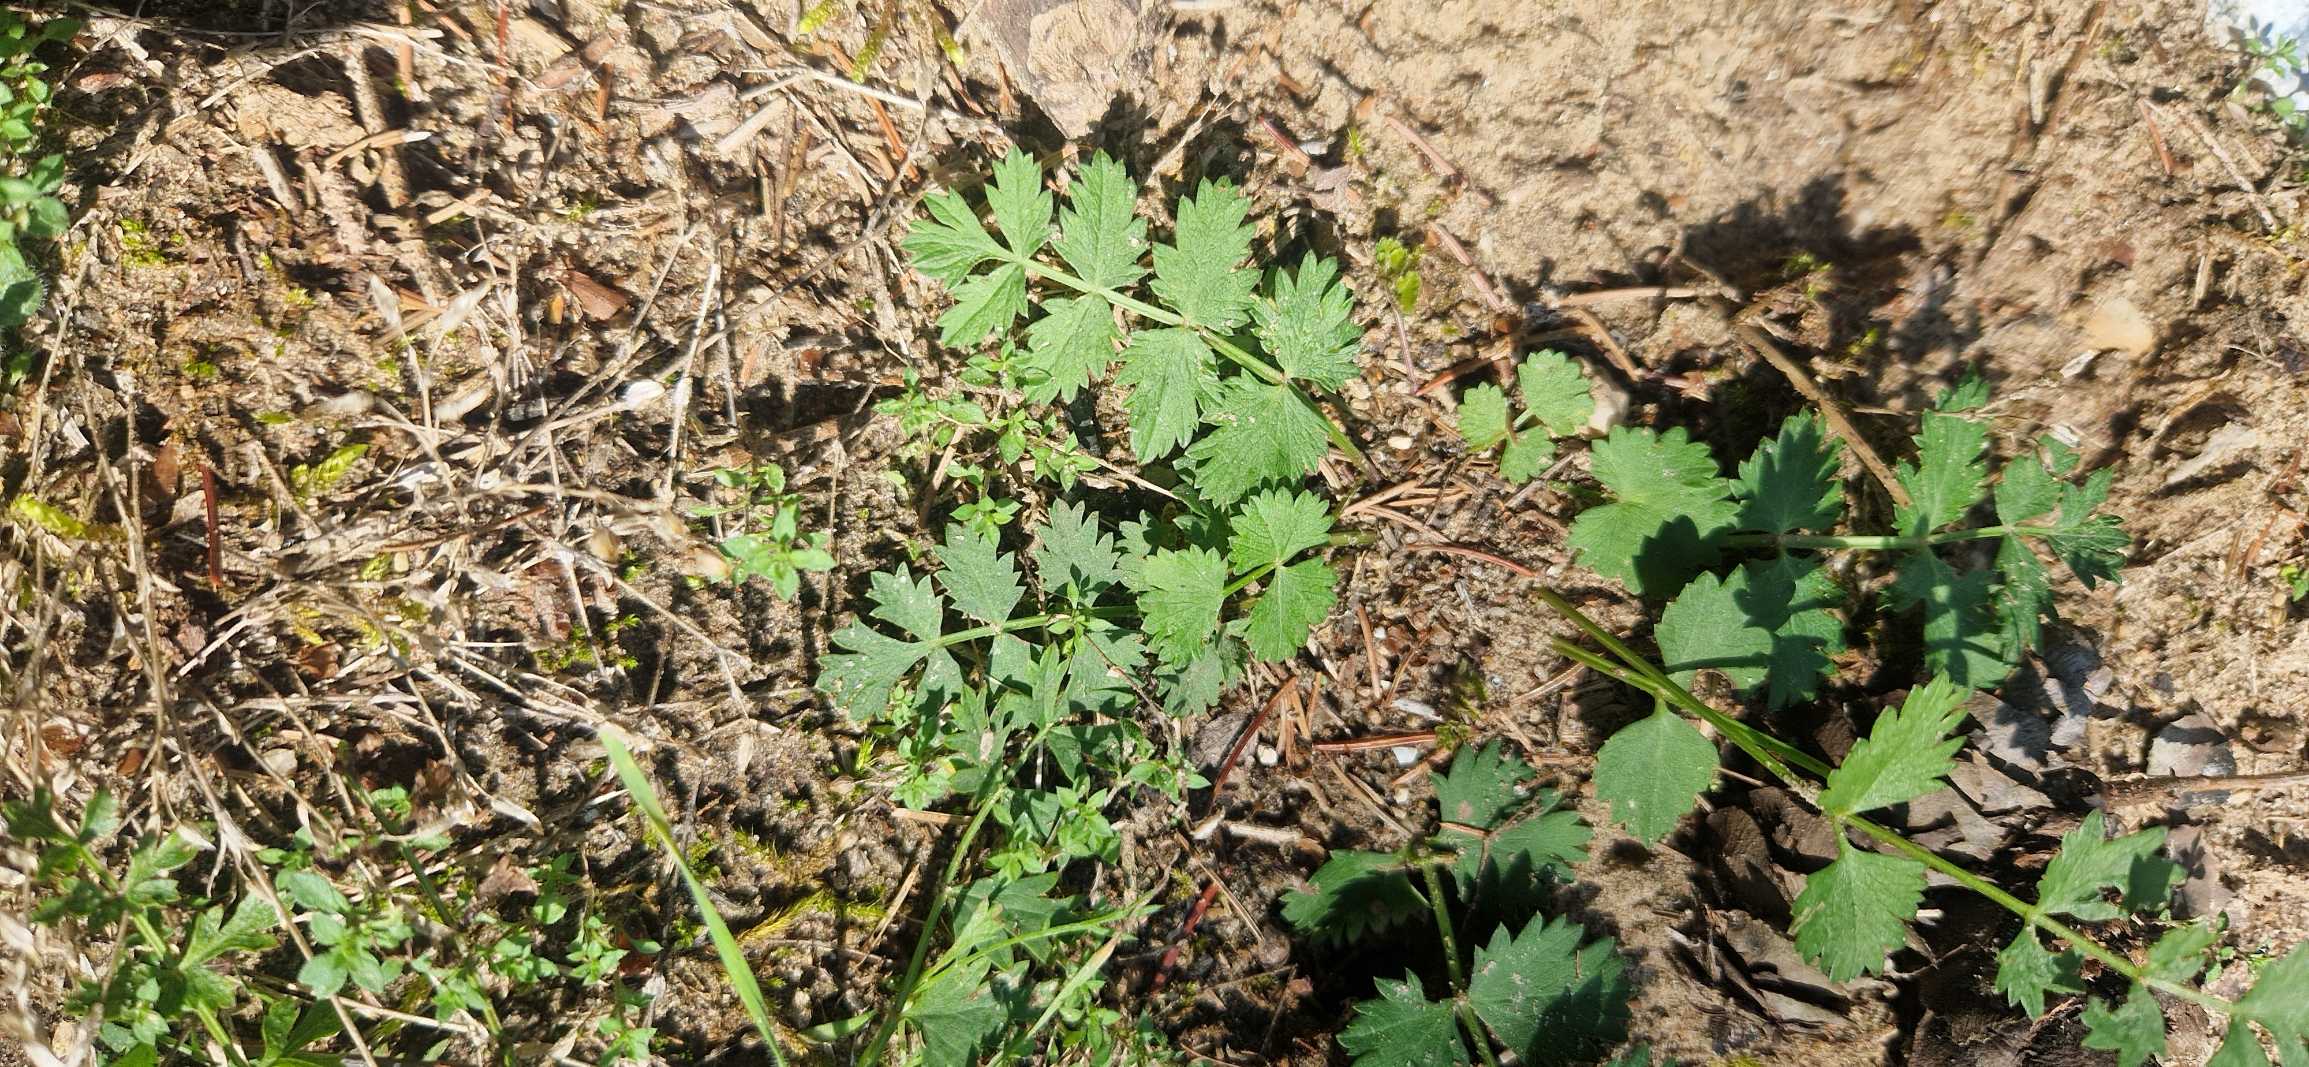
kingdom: Plantae
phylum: Tracheophyta
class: Magnoliopsida
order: Apiales
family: Apiaceae
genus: Pimpinella
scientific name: Pimpinella saxifraga
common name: Almindelig pimpinelle
